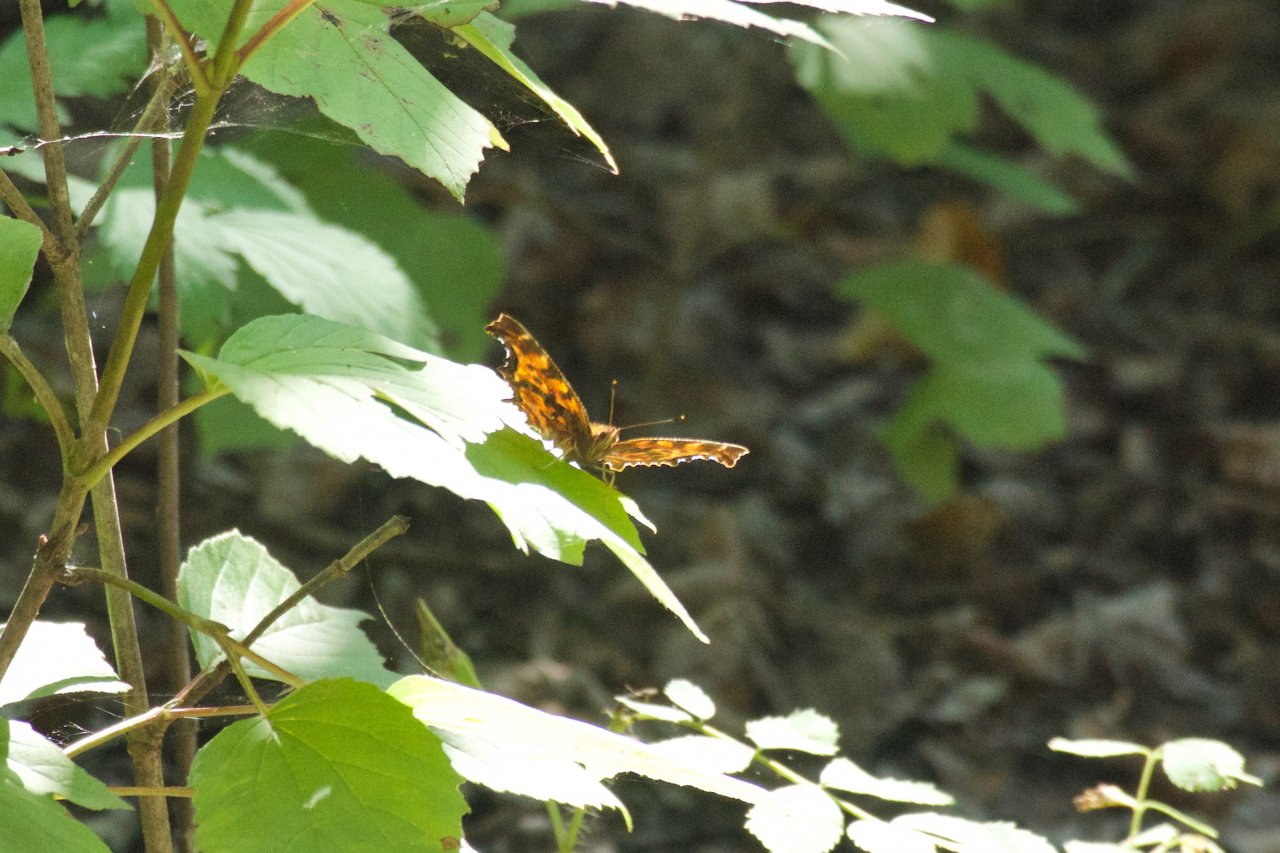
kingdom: Animalia
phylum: Arthropoda
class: Insecta
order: Lepidoptera
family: Nymphalidae
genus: Polygonia
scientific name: Polygonia
